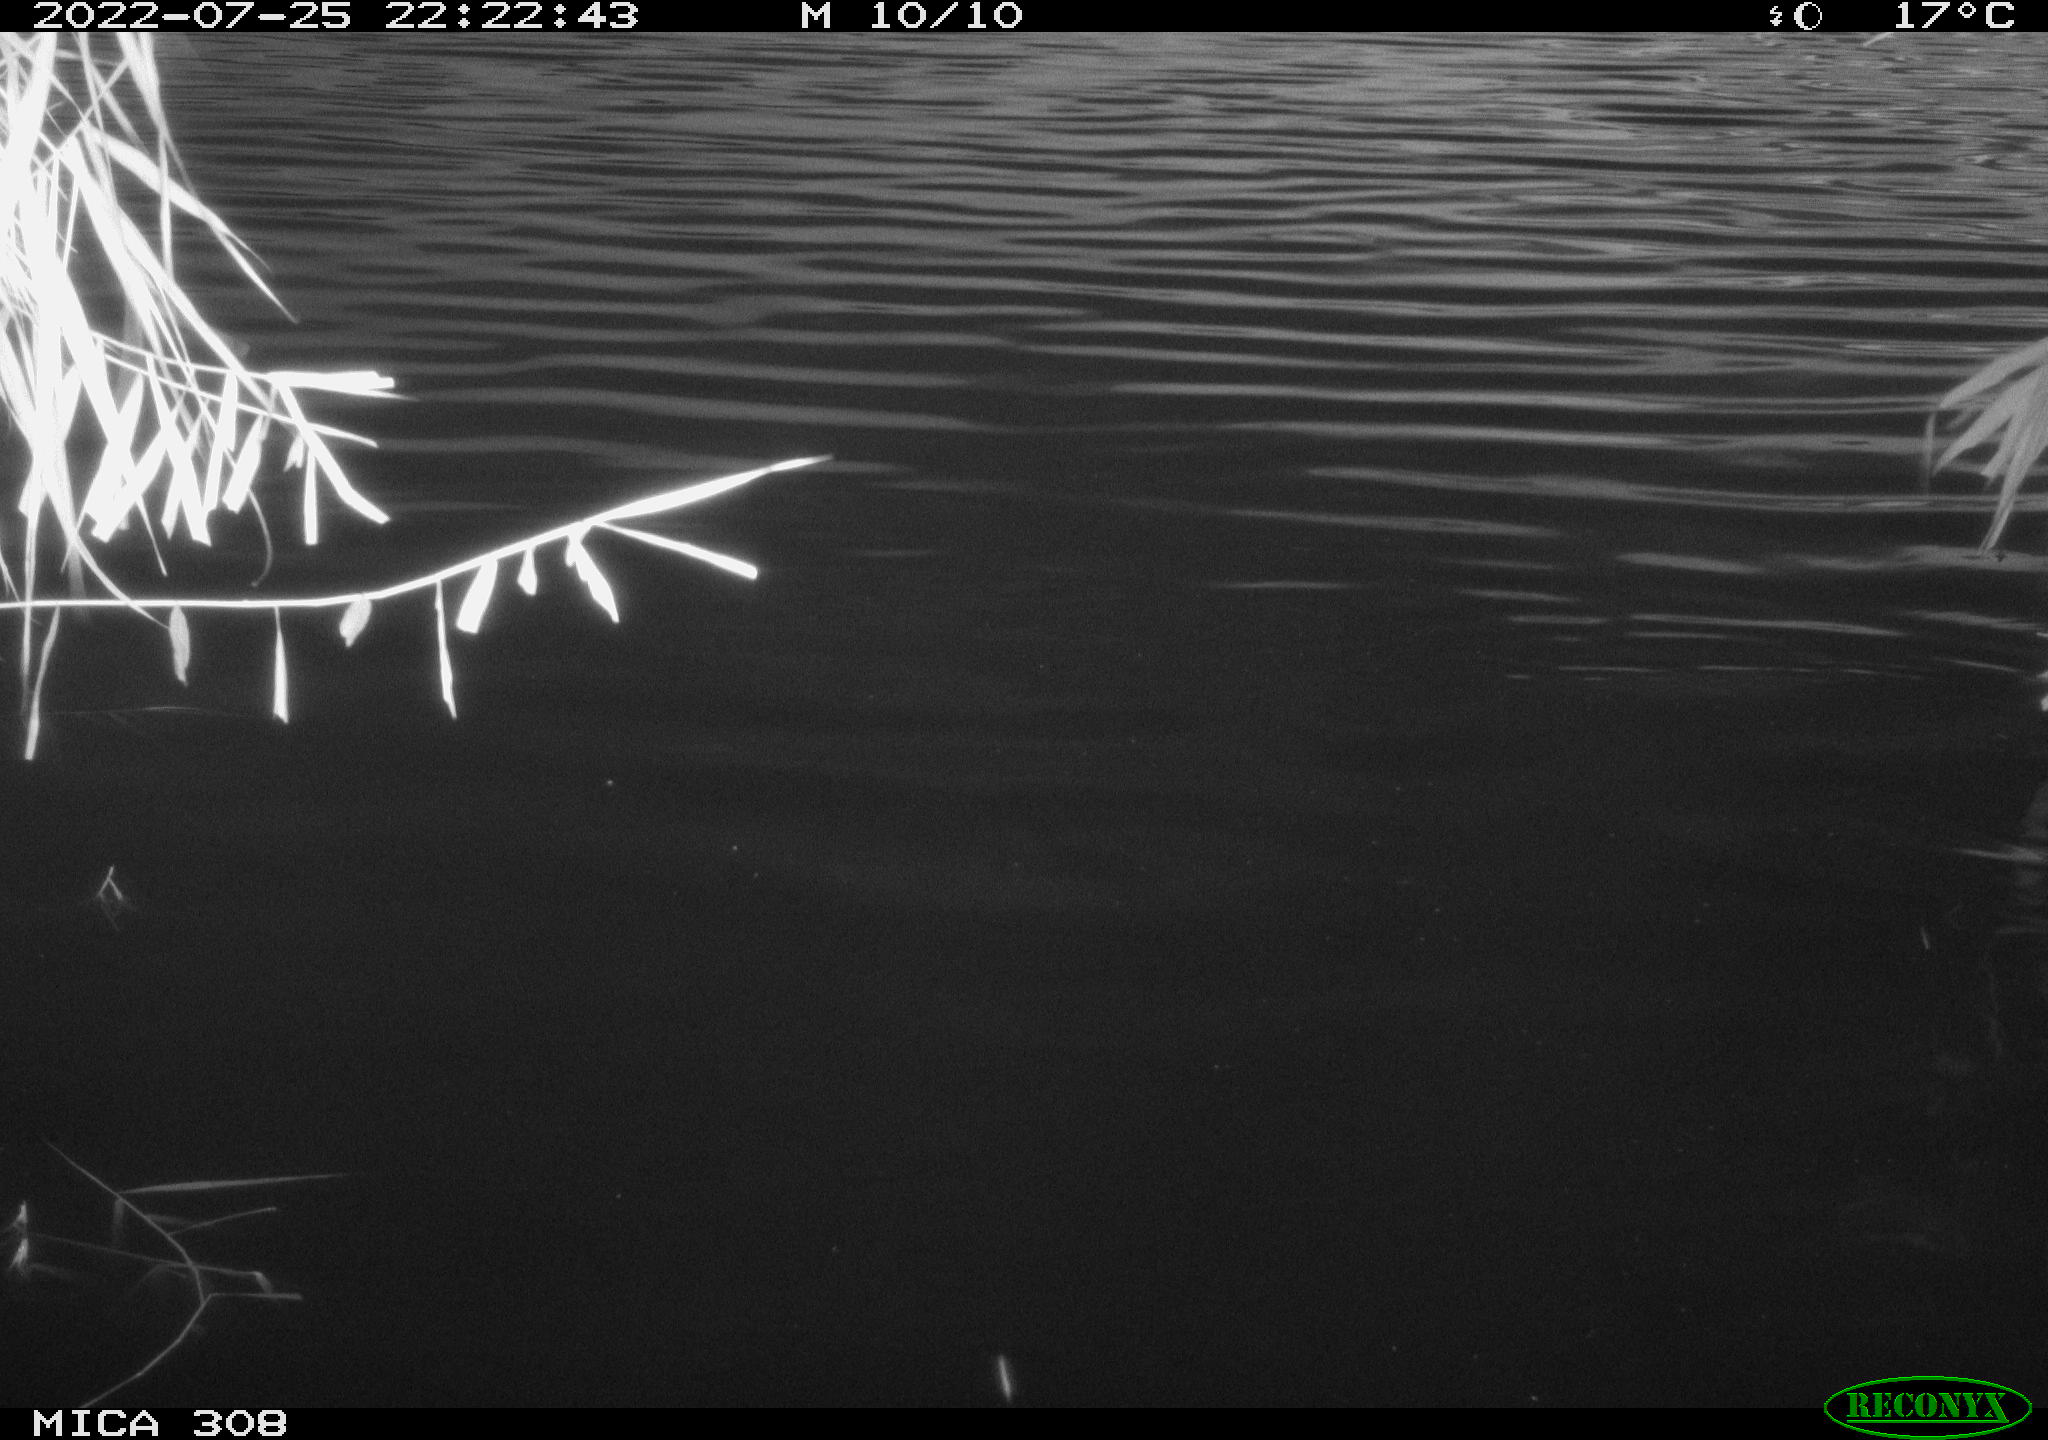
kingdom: Animalia
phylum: Chordata
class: Aves
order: Anseriformes
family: Anatidae
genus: Anas
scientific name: Anas platyrhynchos
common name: Mallard
